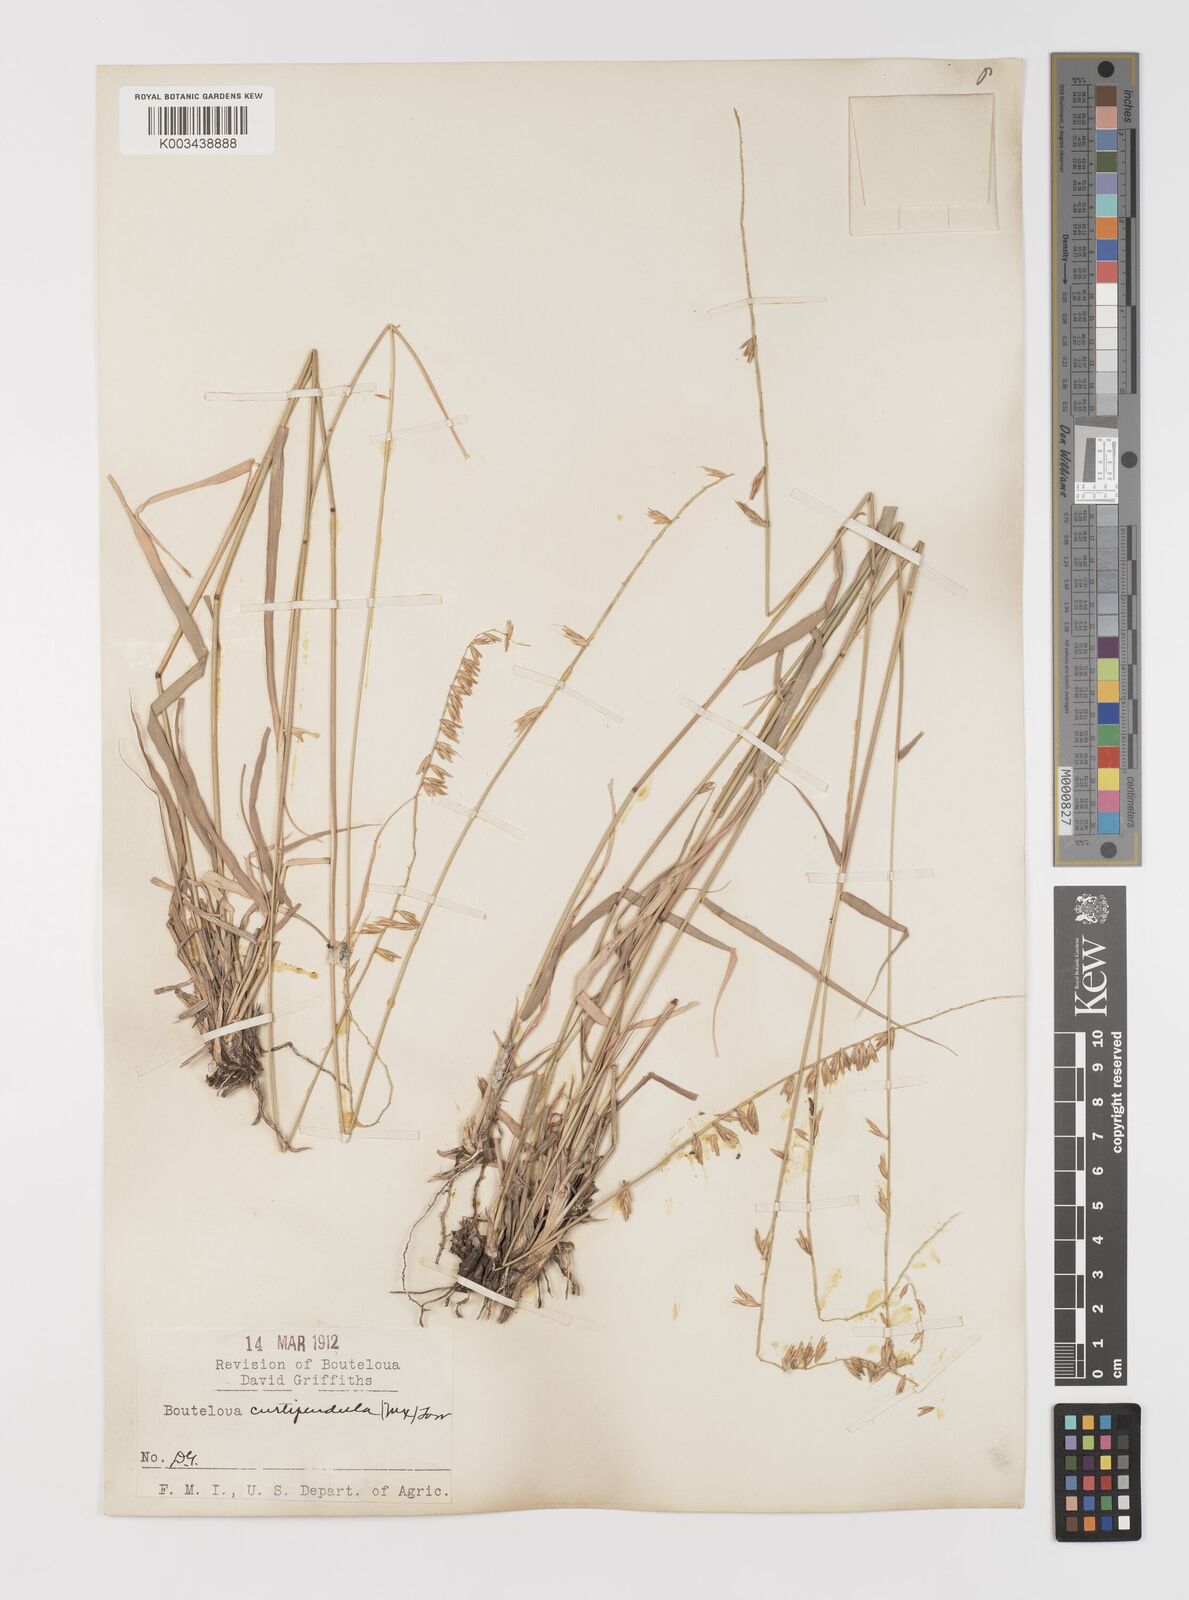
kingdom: Plantae
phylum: Tracheophyta
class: Liliopsida
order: Poales
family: Poaceae
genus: Bouteloua
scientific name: Bouteloua curtipendula
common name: Side-oats grama
